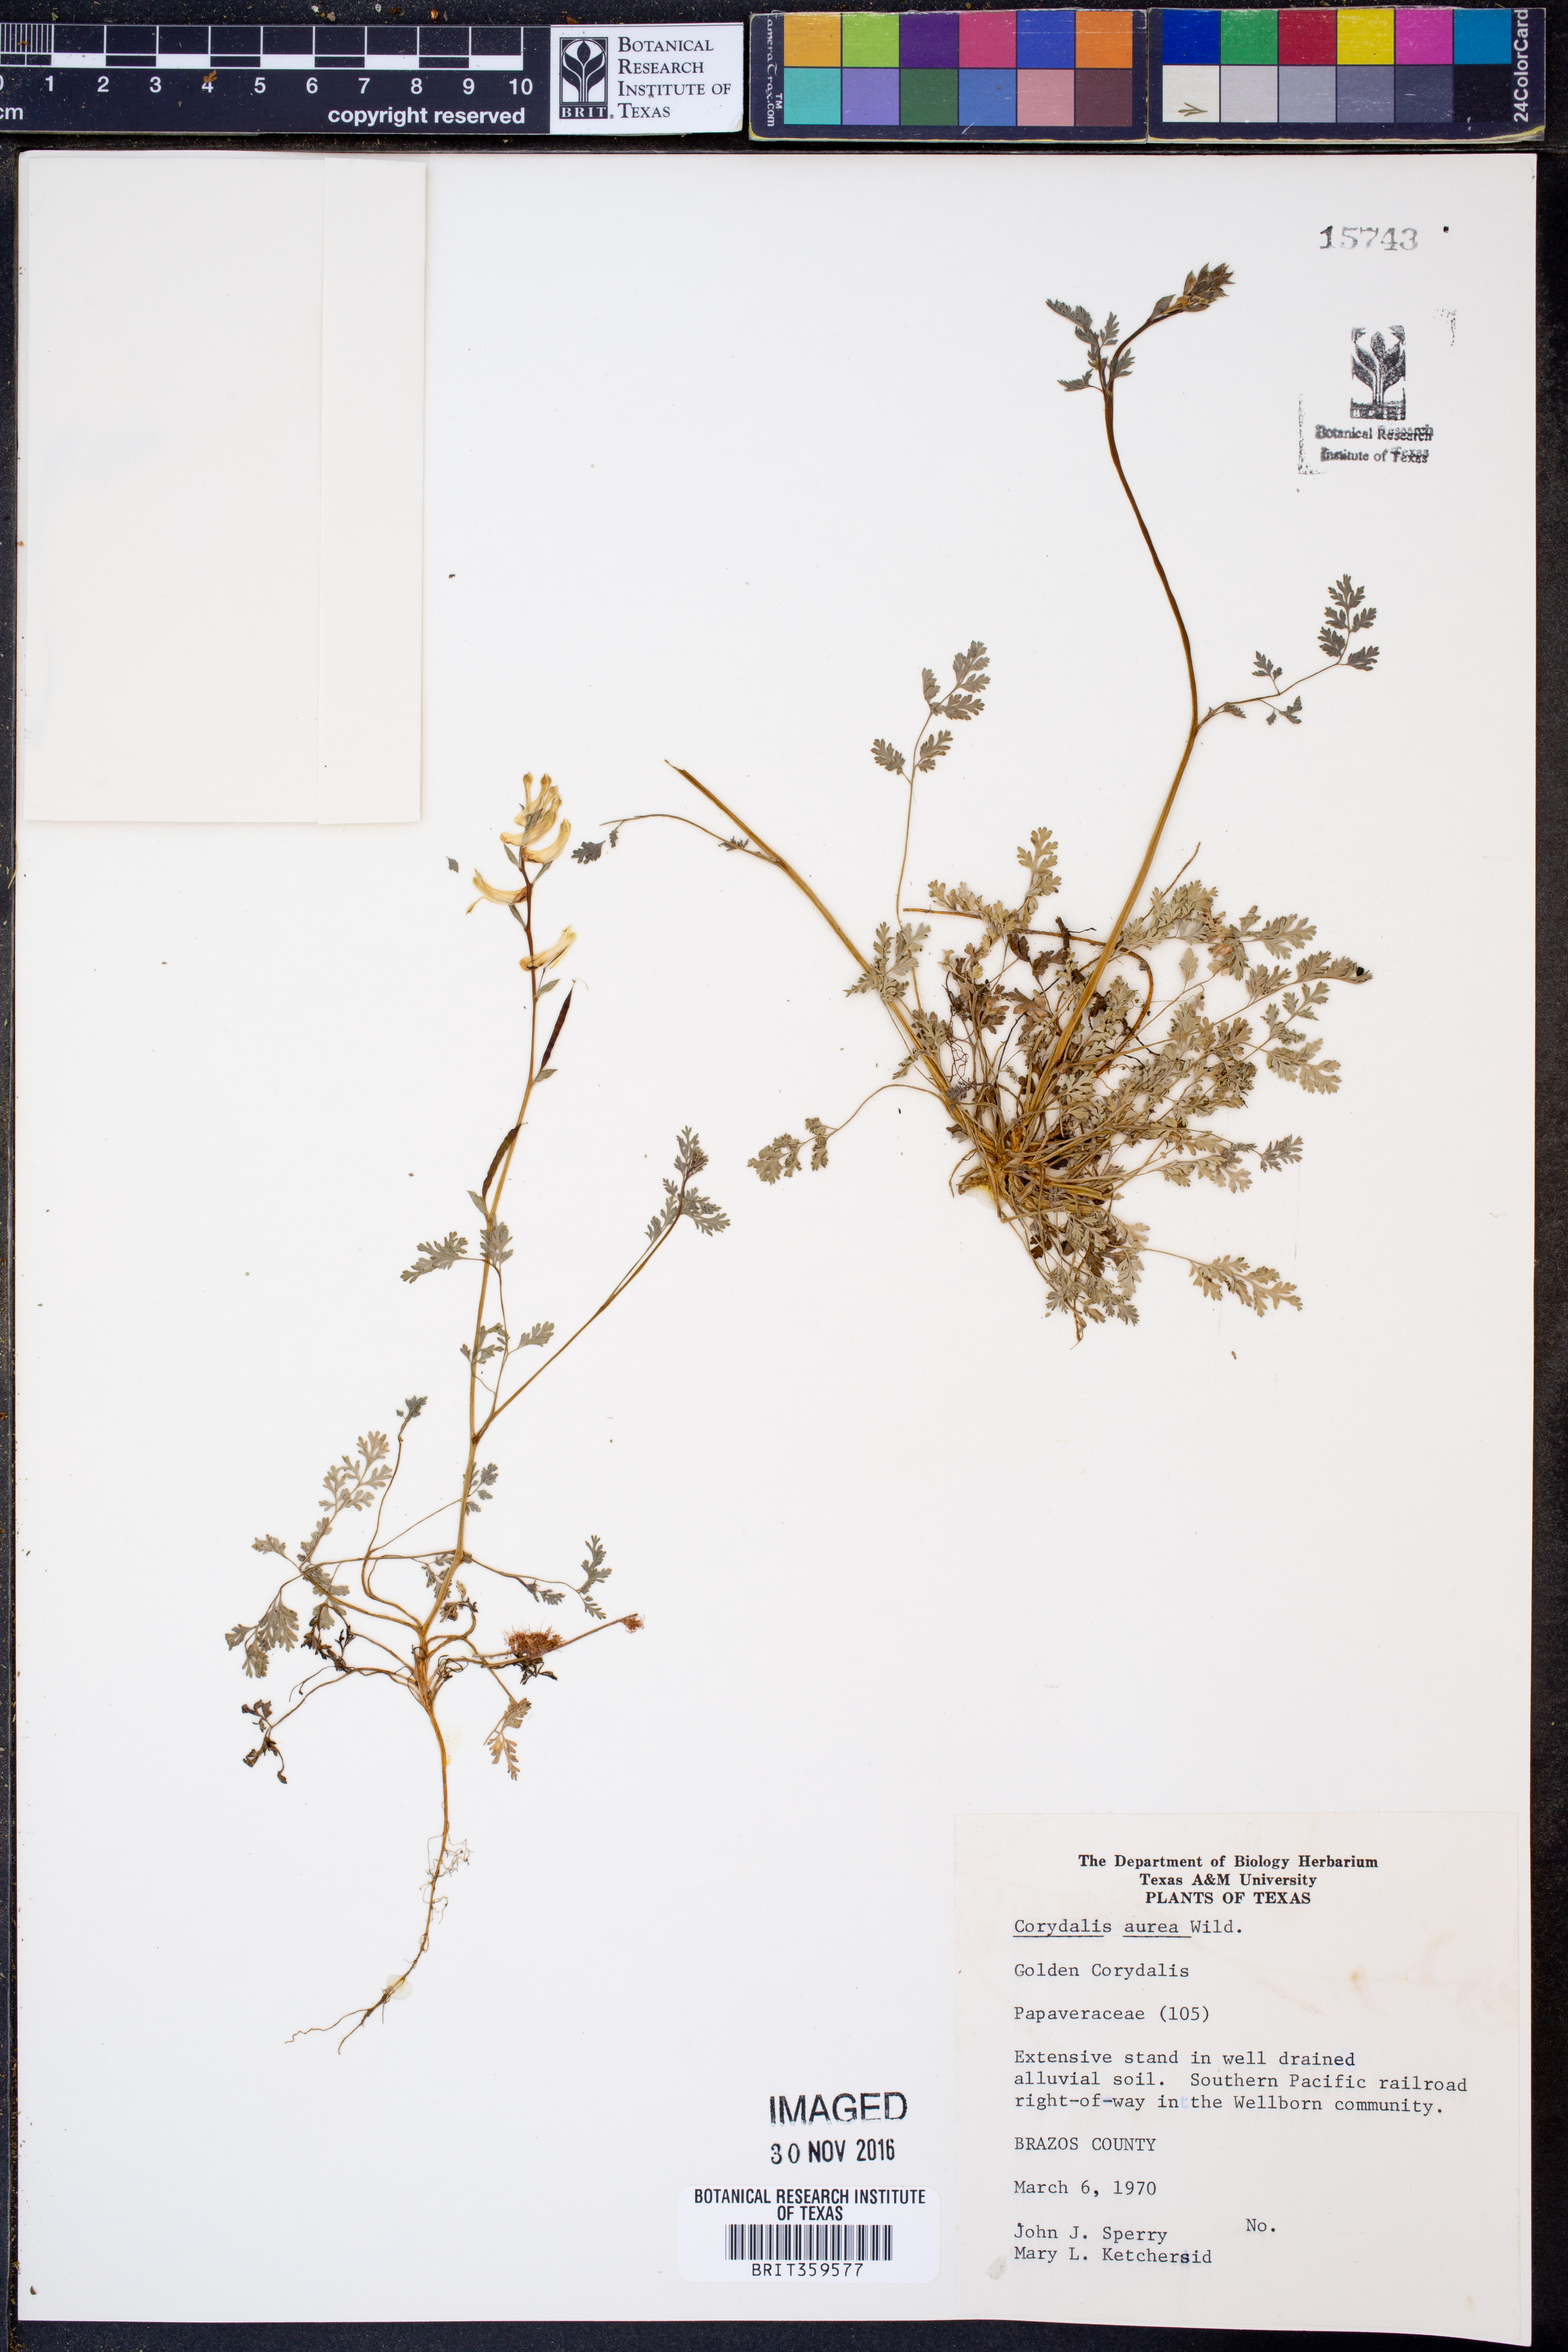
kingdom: Plantae
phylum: Tracheophyta
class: Magnoliopsida
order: Ranunculales
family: Papaveraceae
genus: Corydalis
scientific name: Corydalis aurea
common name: Golden corydalis
